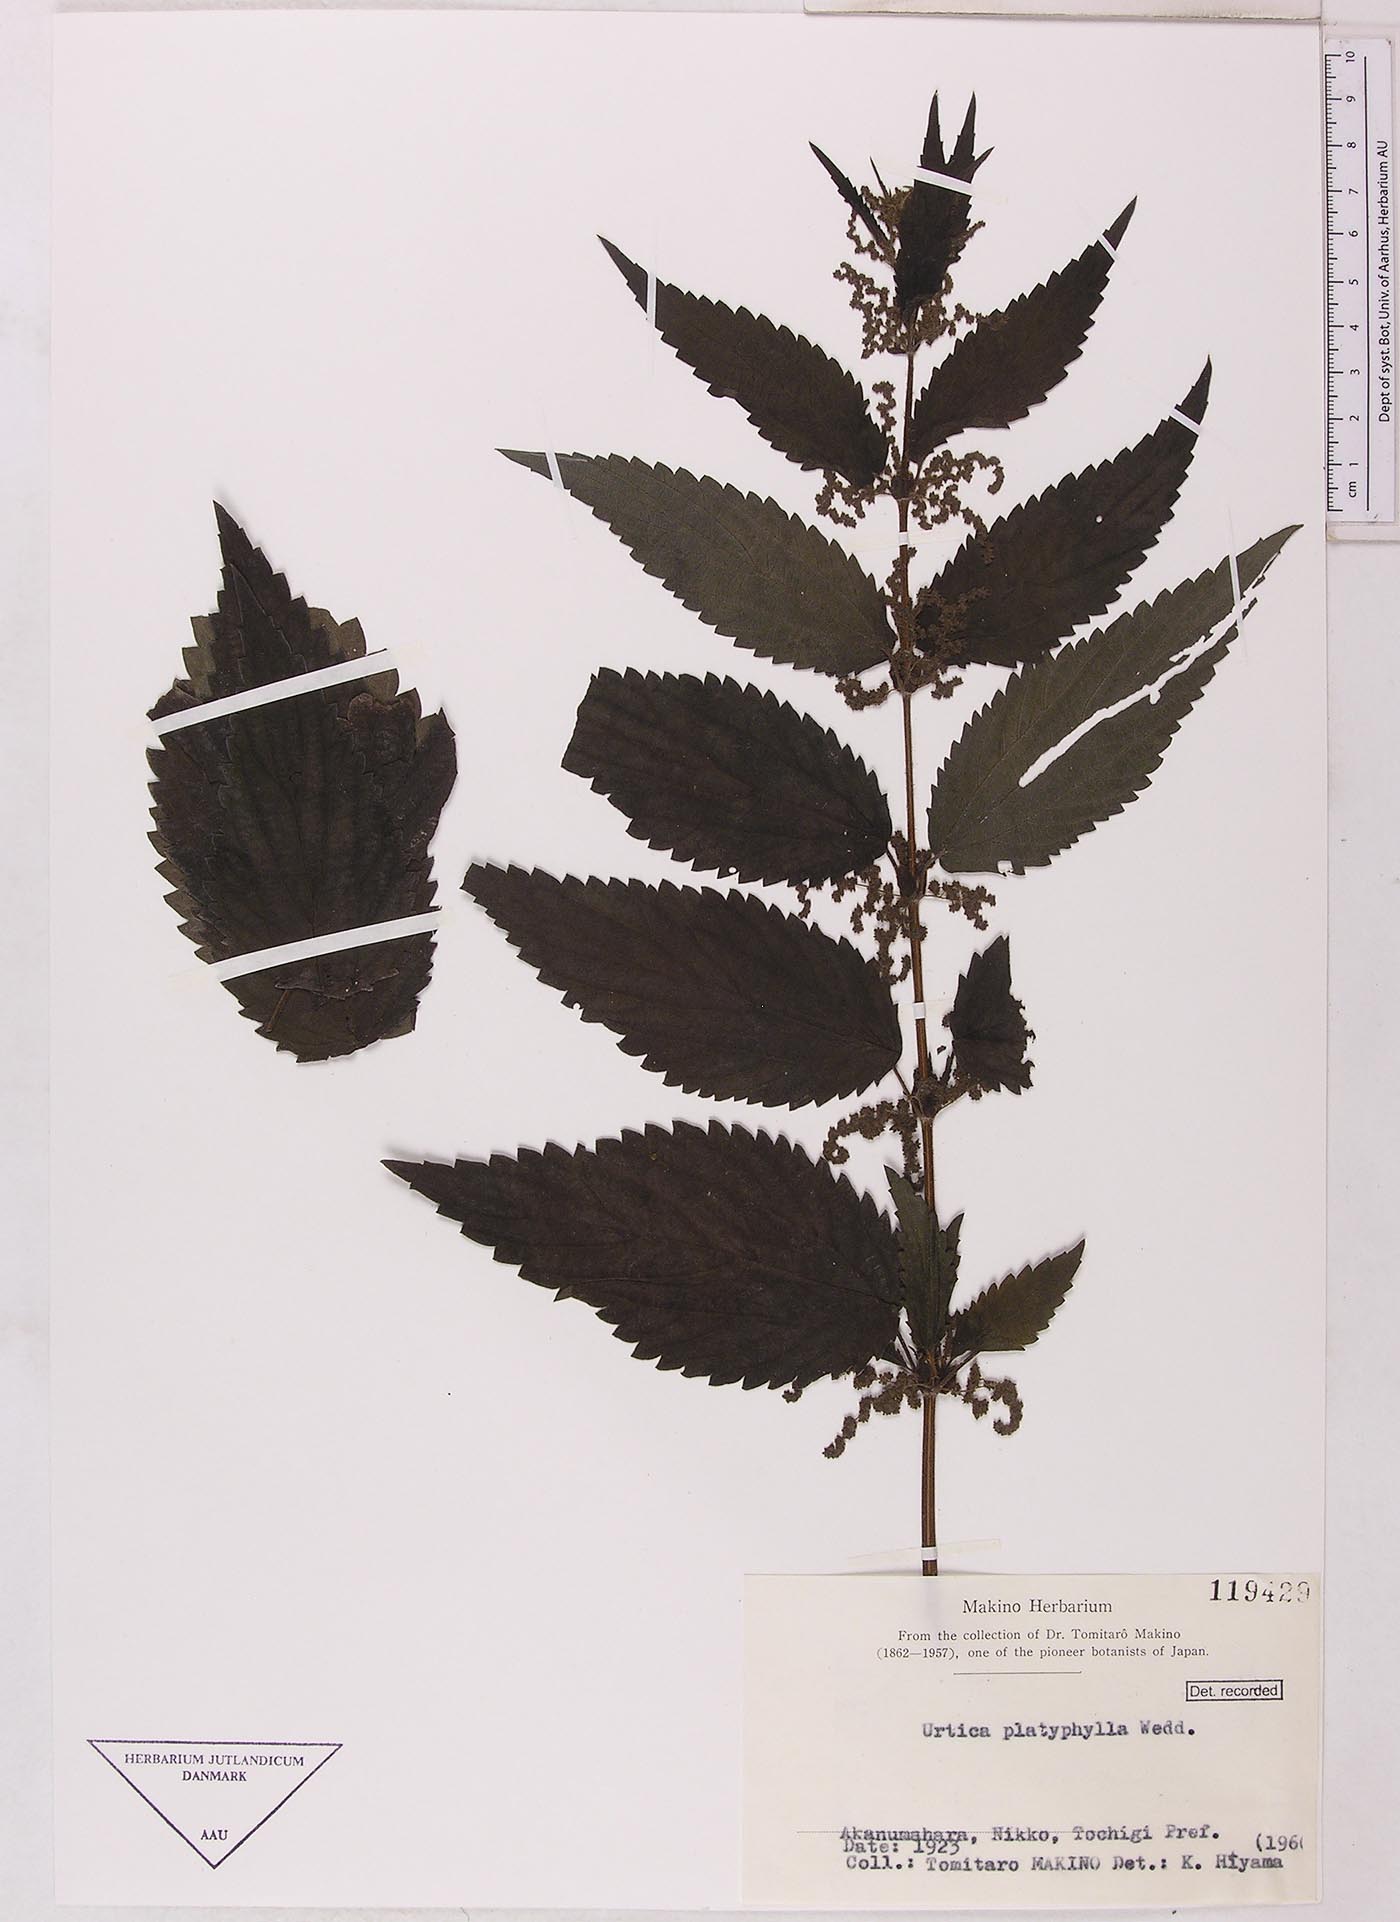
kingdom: Plantae
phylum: Tracheophyta
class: Magnoliopsida
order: Rosales
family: Urticaceae
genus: Urtica
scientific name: Urtica platyphylla
